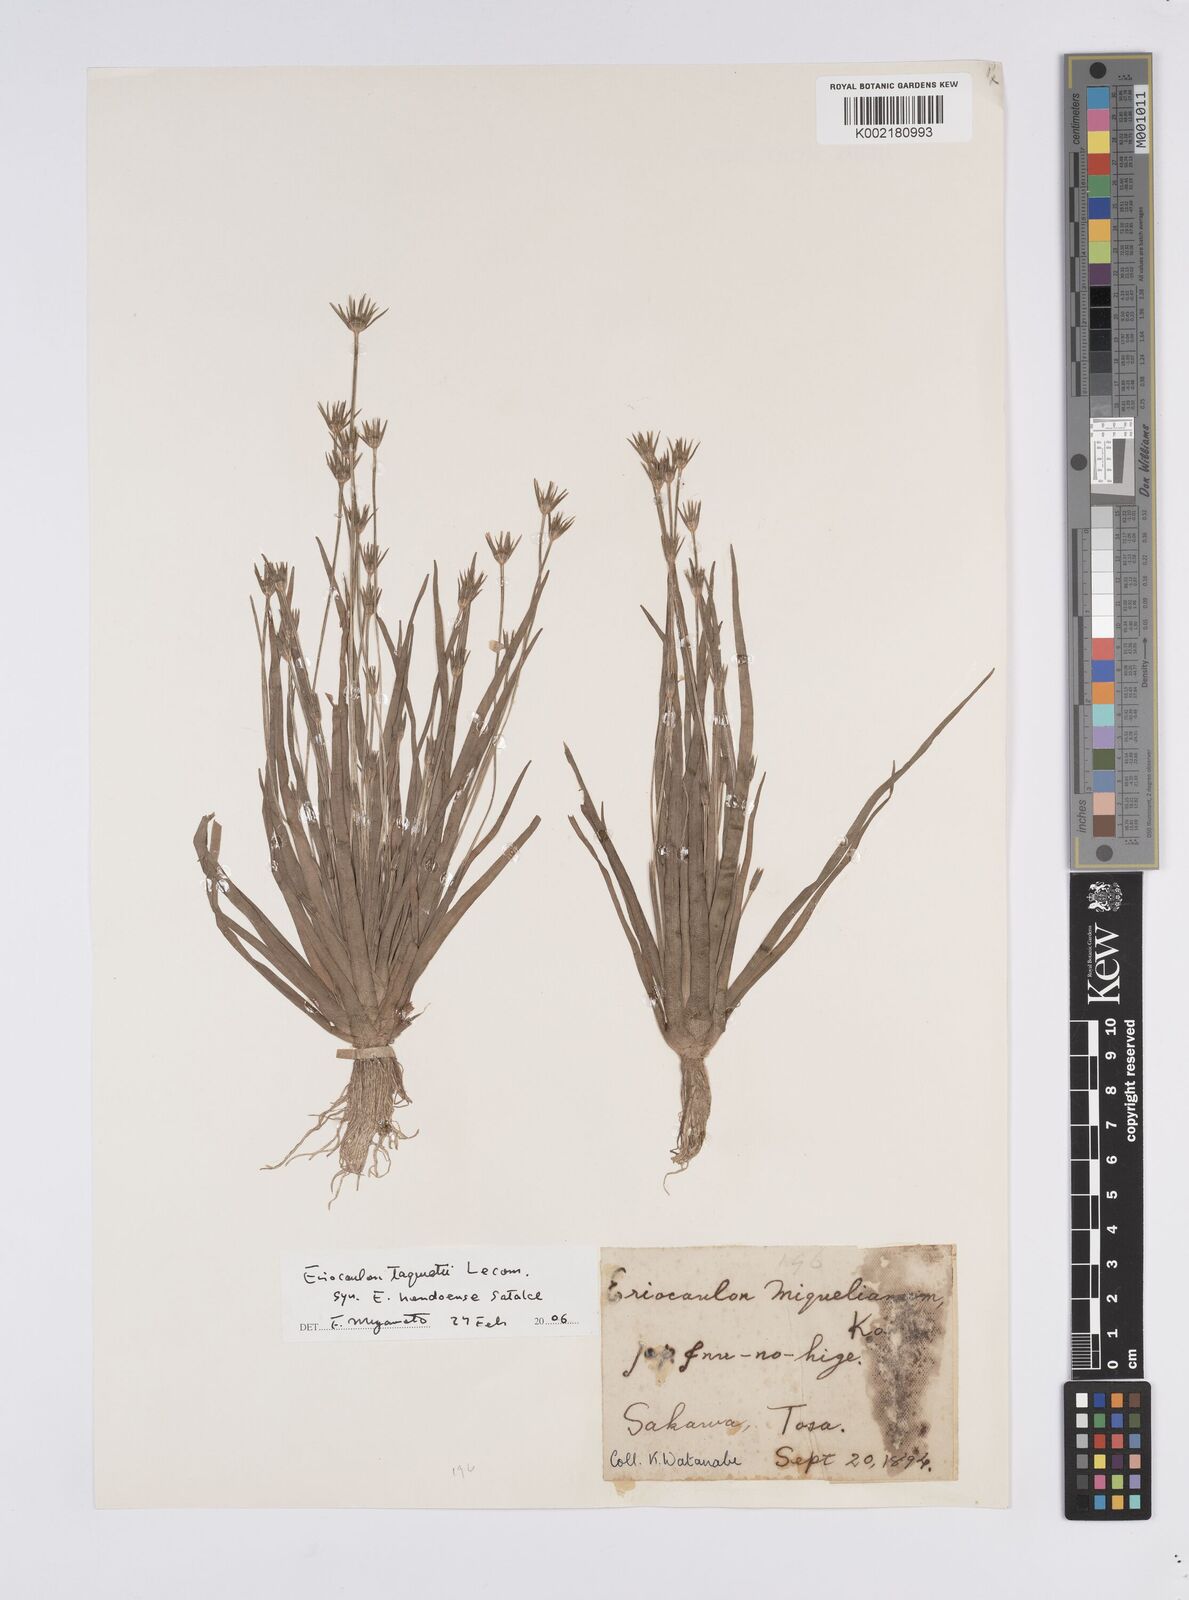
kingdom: Plantae
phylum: Tracheophyta
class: Liliopsida
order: Poales
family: Eriocaulaceae
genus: Eriocaulon
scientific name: Eriocaulon miquelianum
